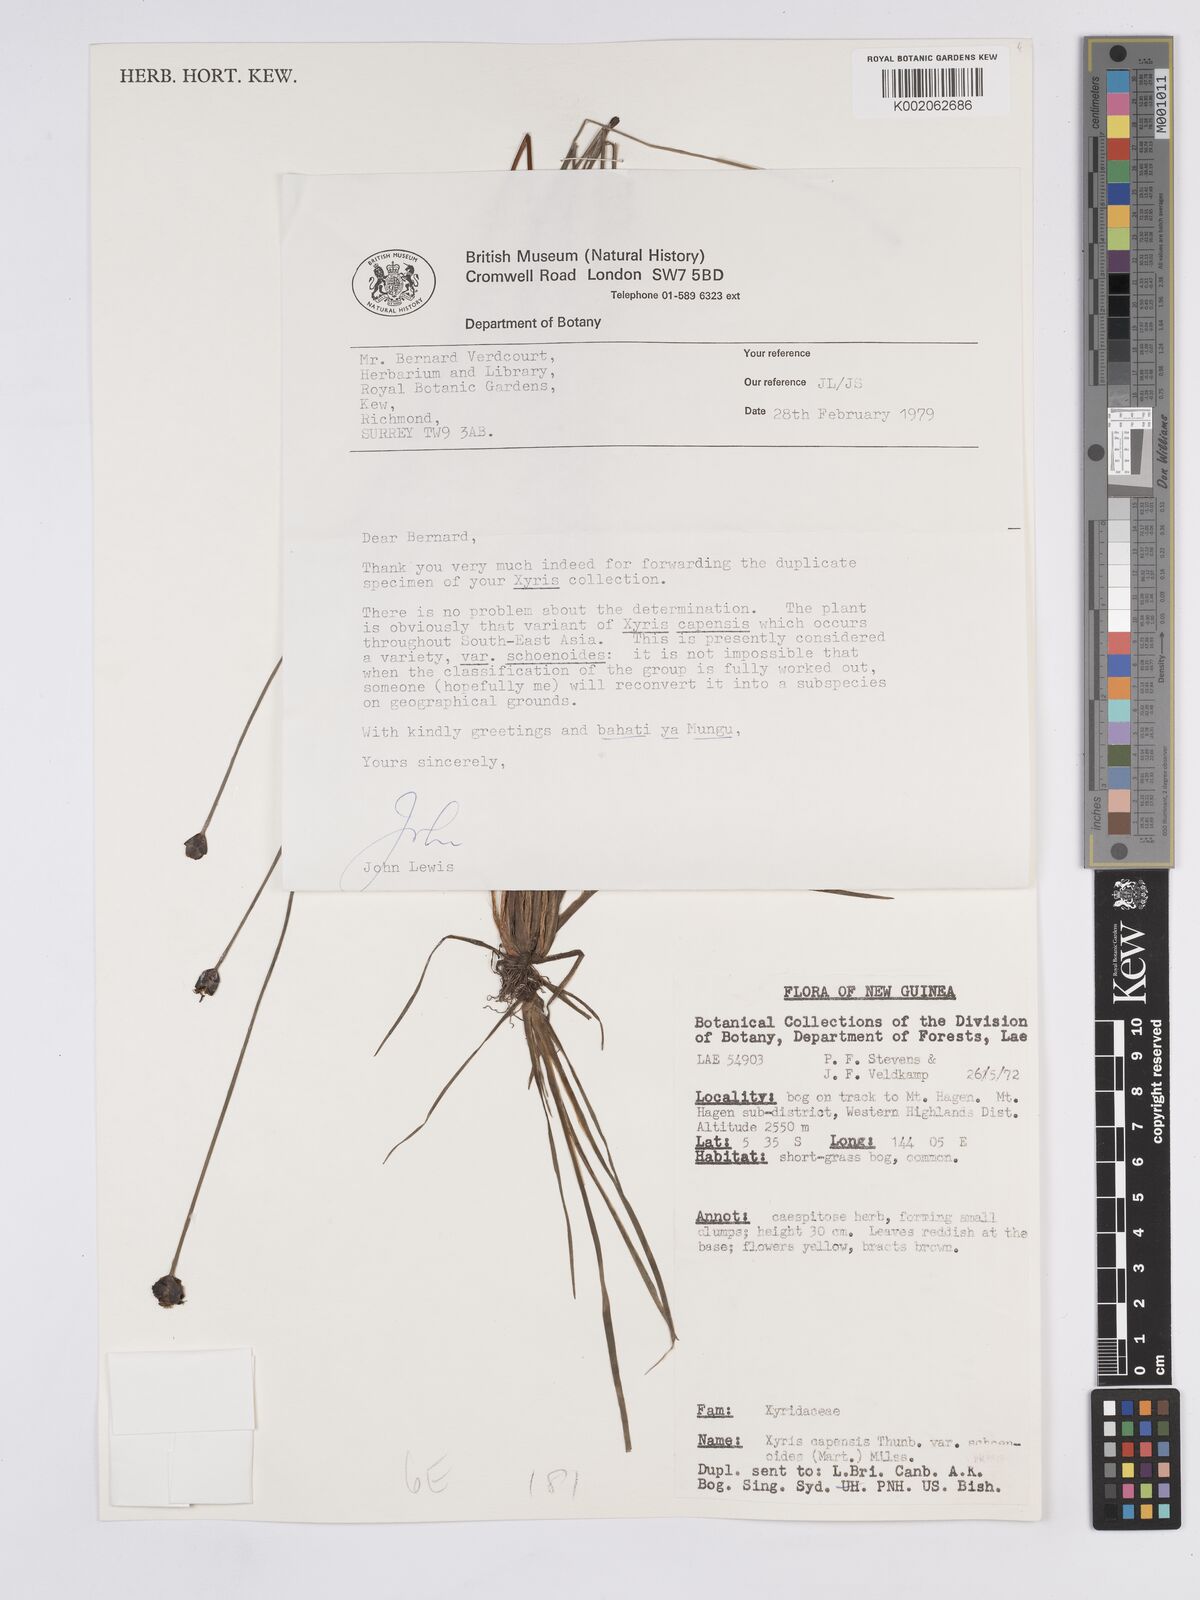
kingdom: Plantae
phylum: Tracheophyta
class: Liliopsida
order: Poales
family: Xyridaceae
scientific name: Xyridaceae
